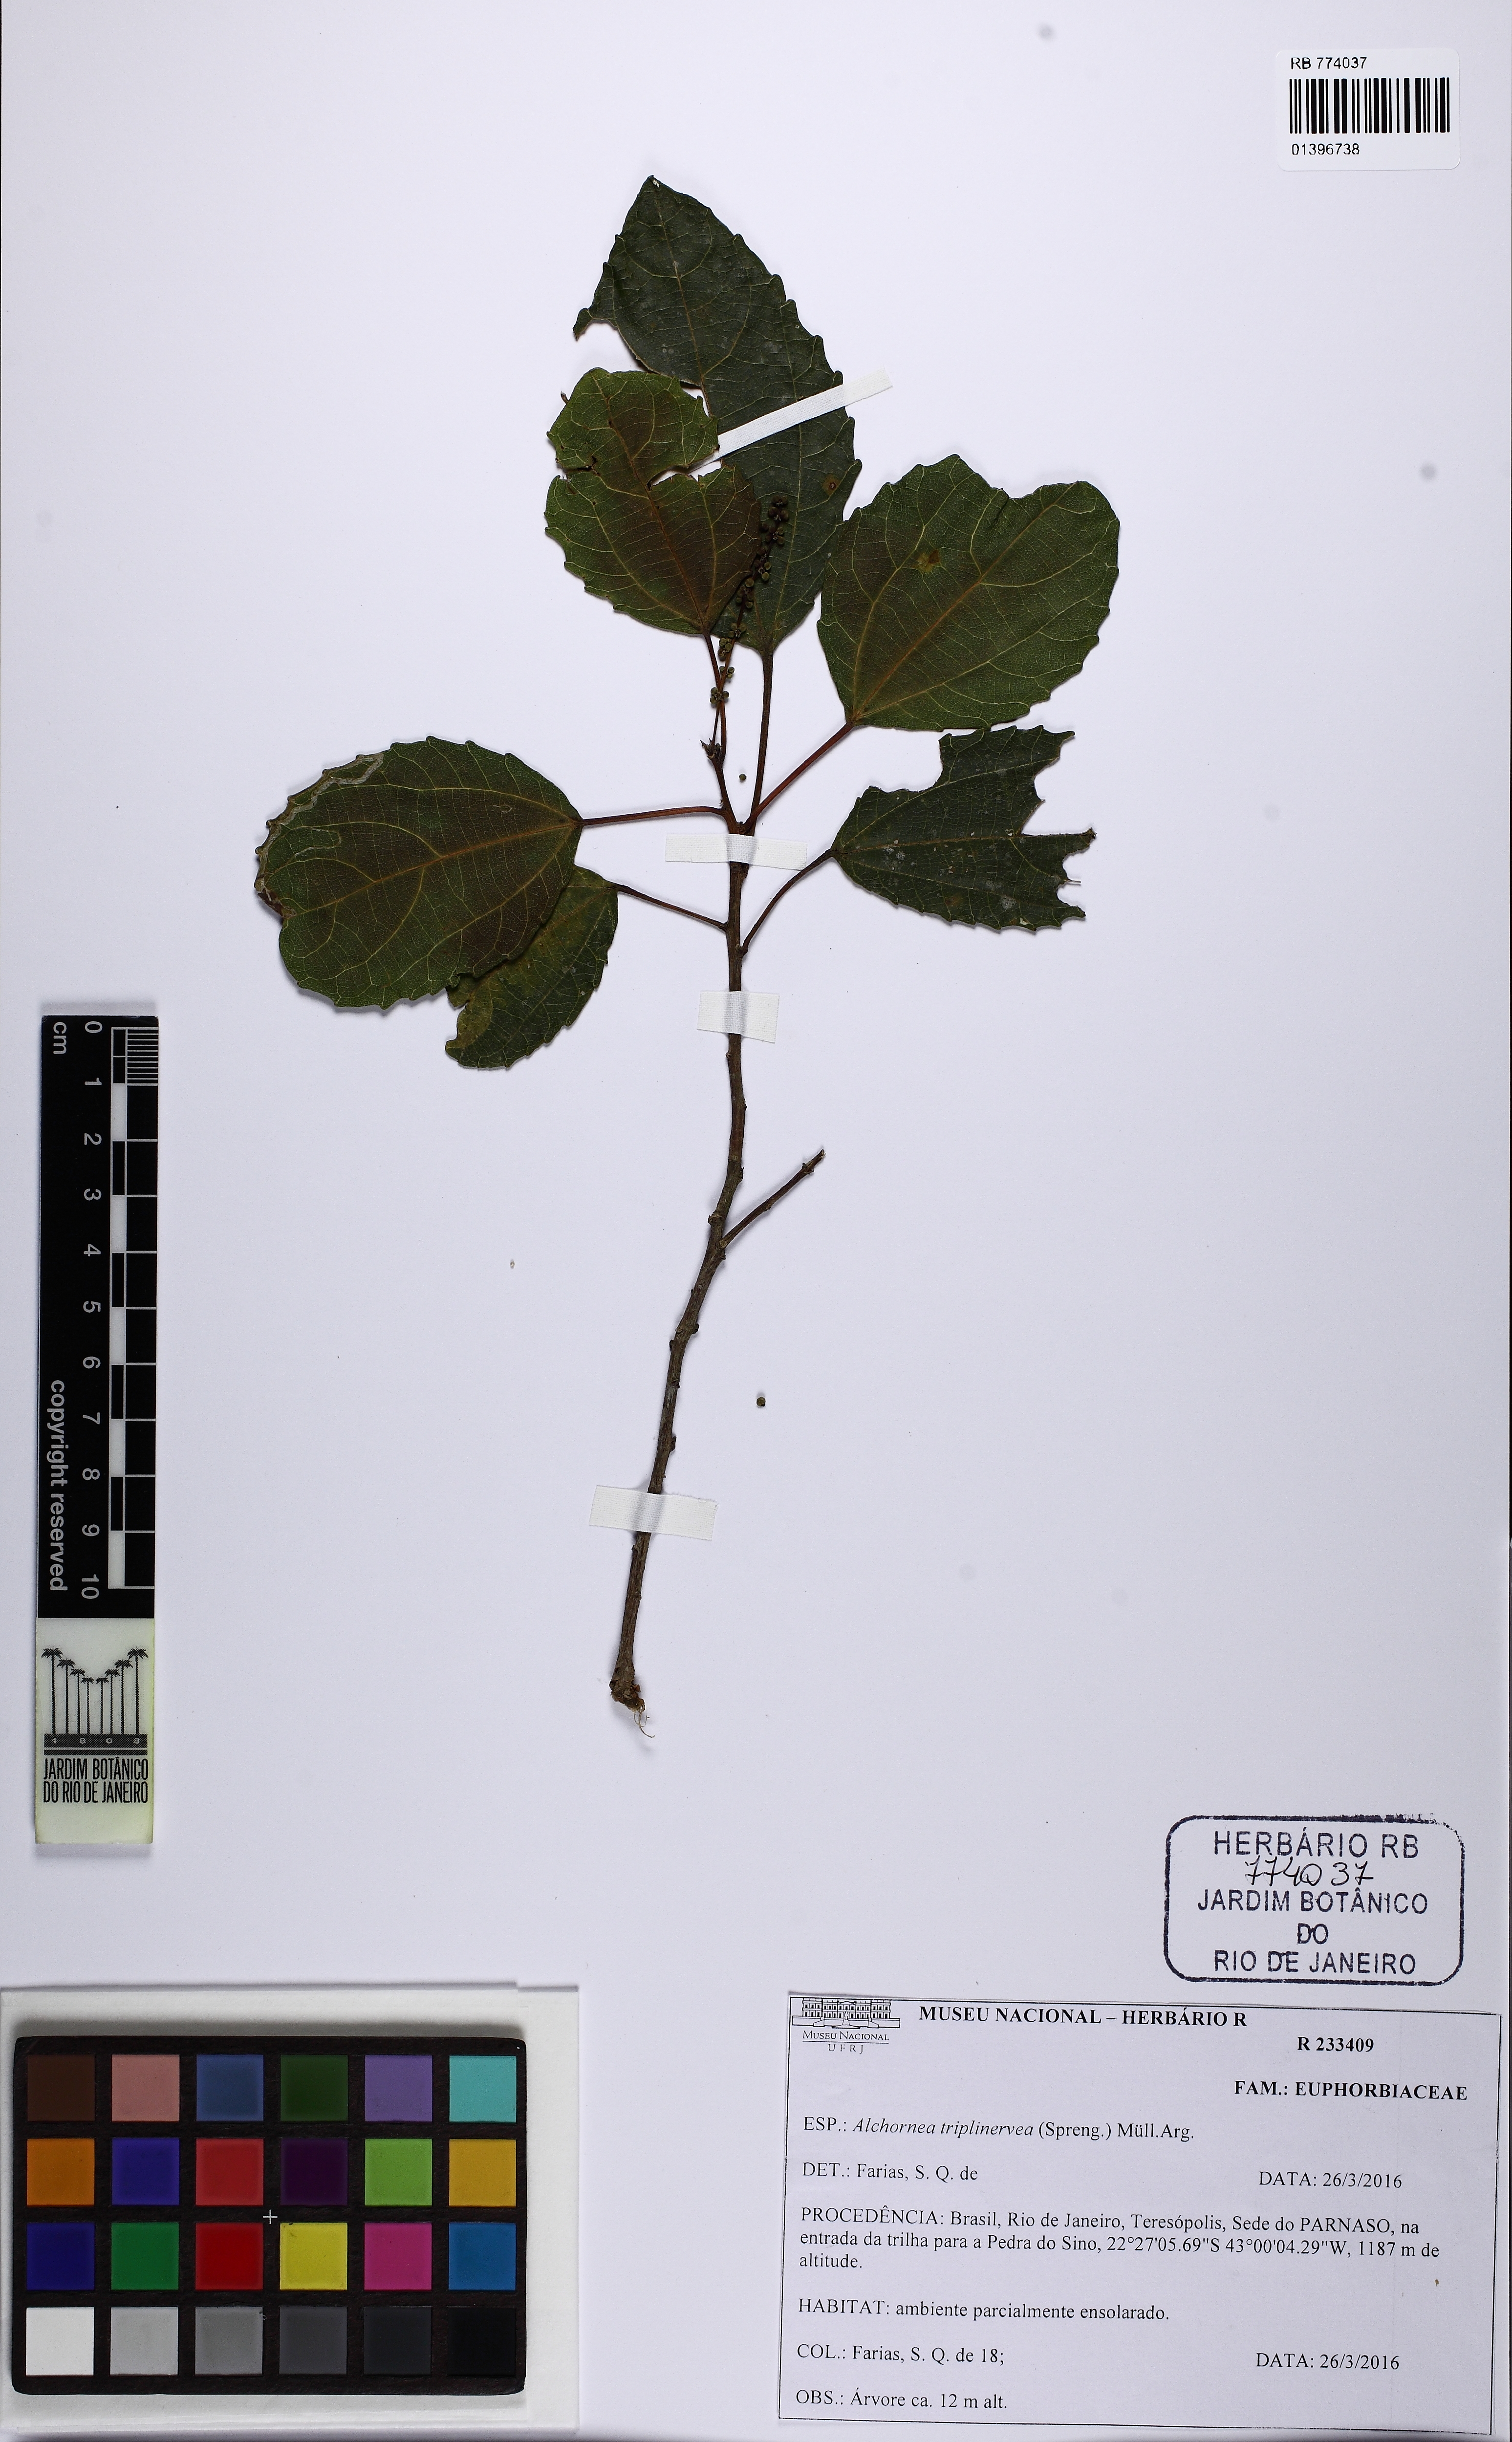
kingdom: Plantae
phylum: Tracheophyta
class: Magnoliopsida
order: Malpighiales
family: Euphorbiaceae
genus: Alchornea
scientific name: Alchornea triplinervia
